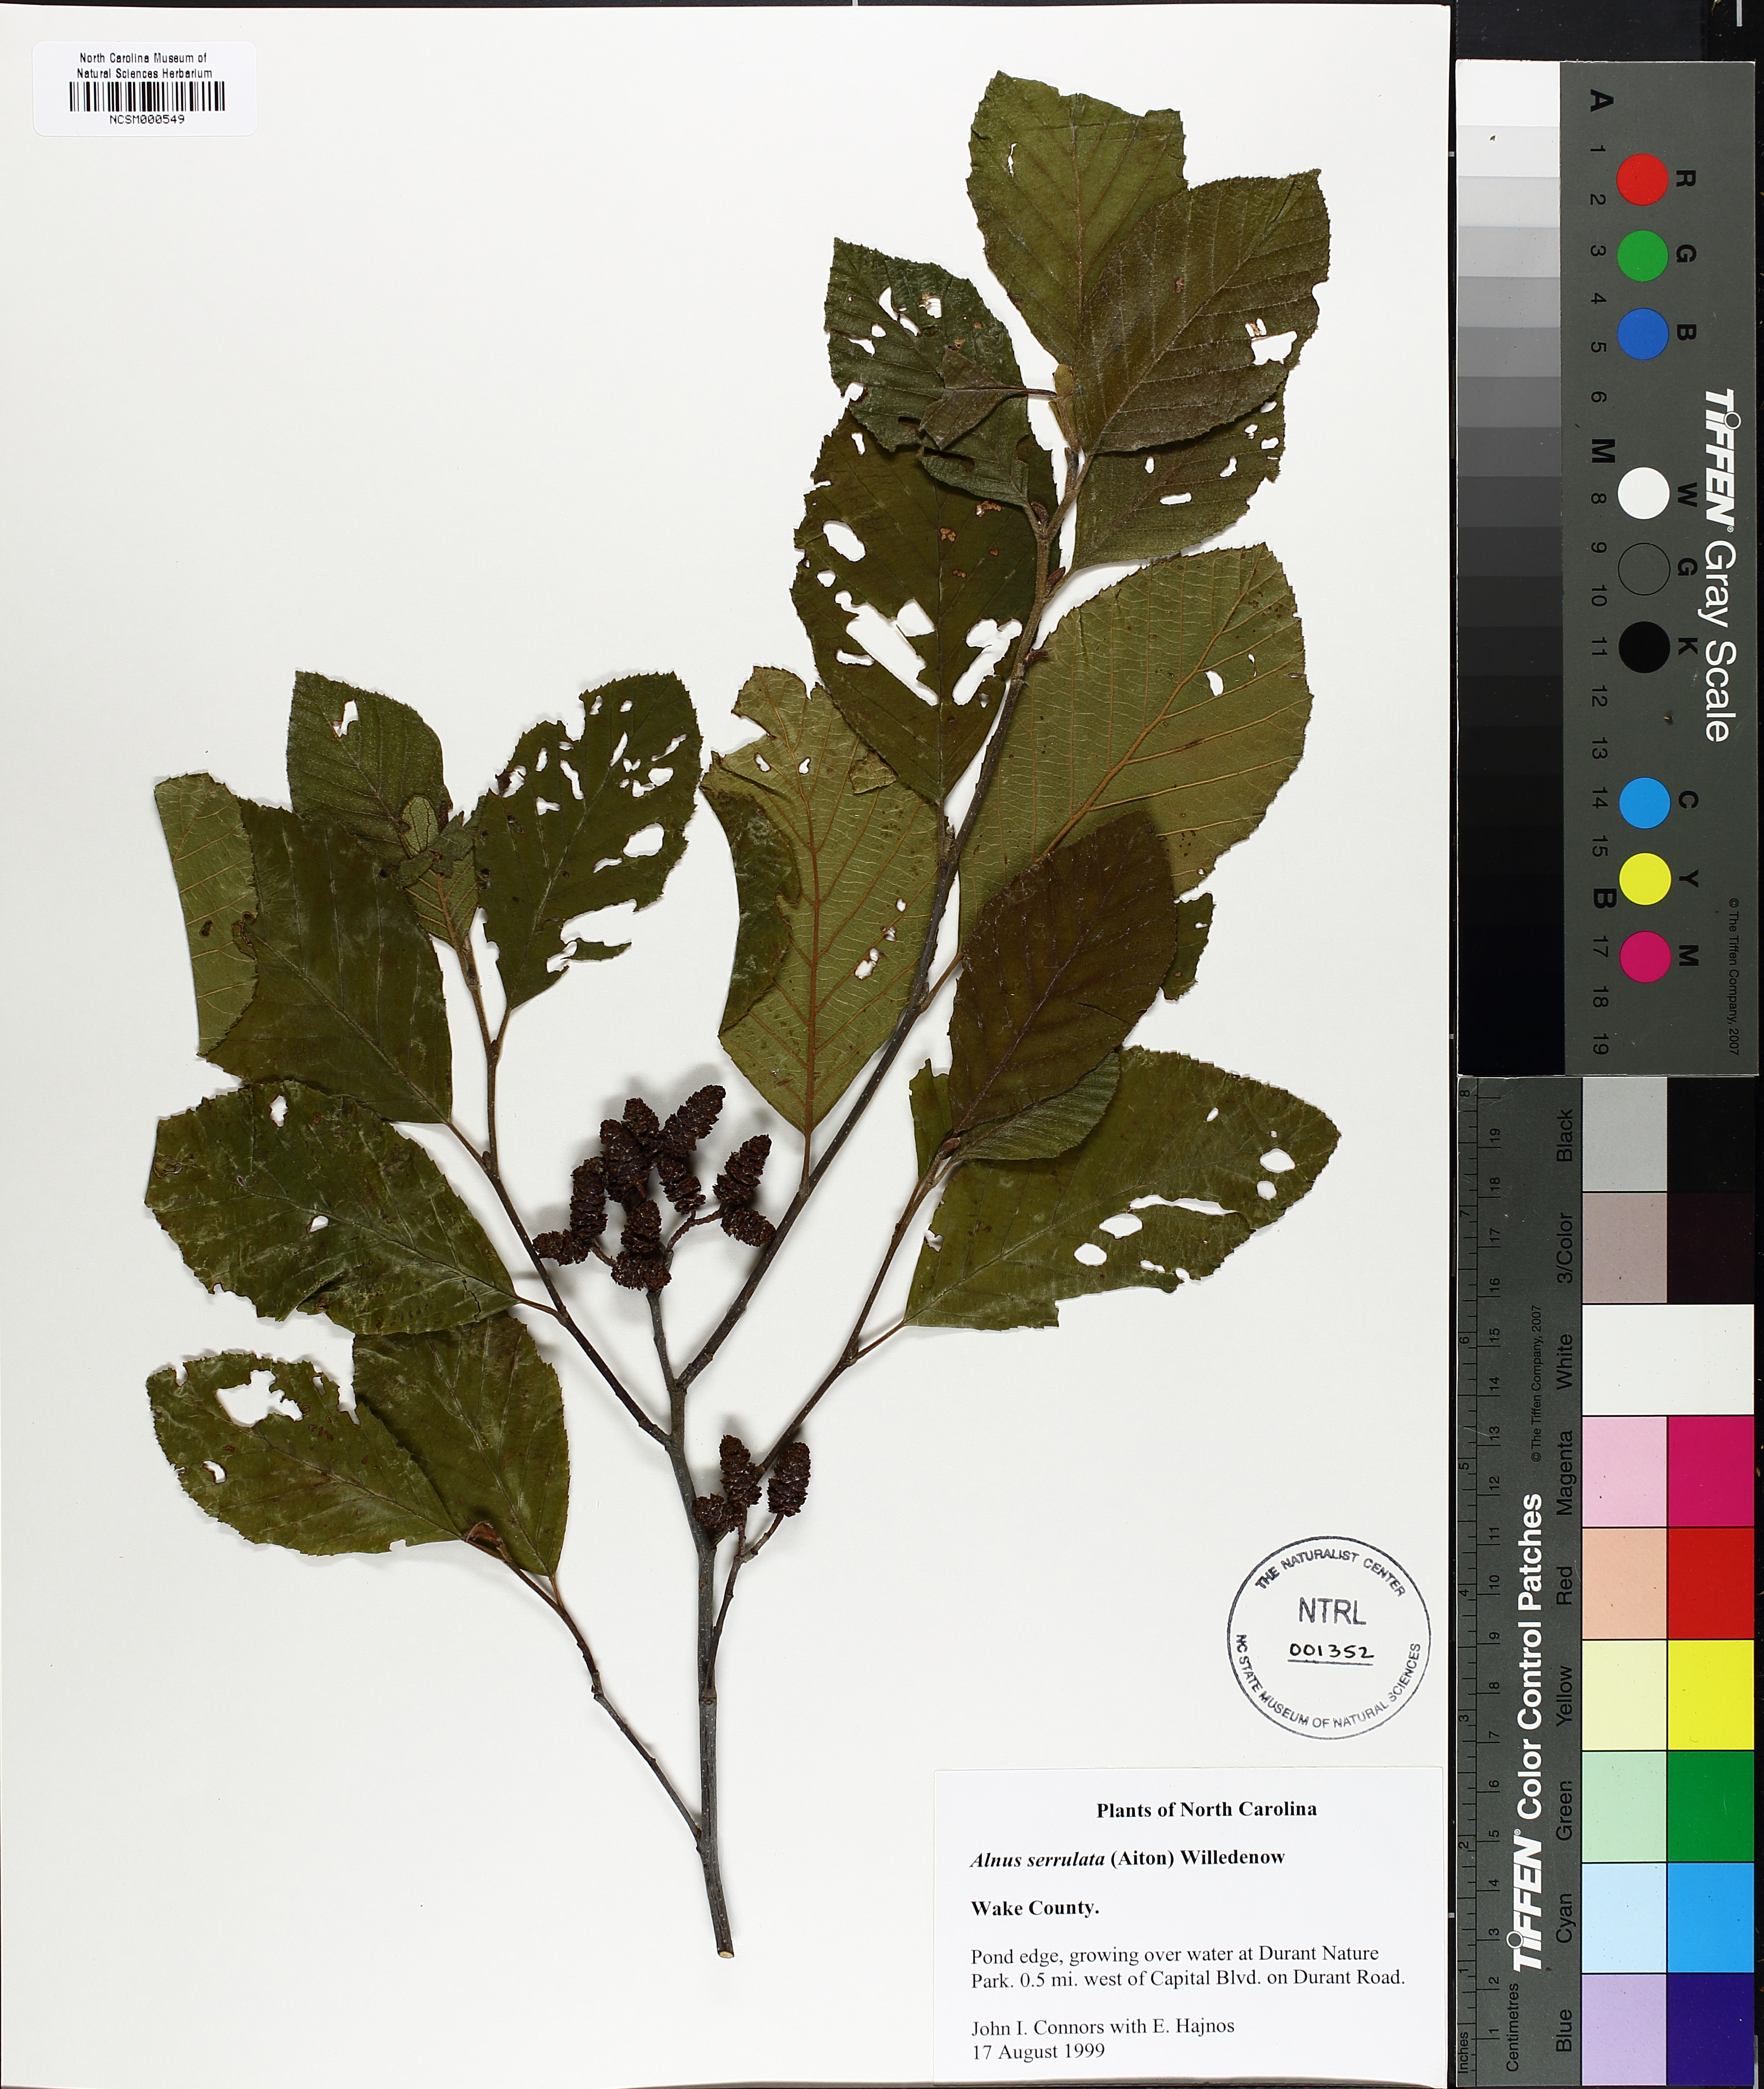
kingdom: Plantae
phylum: Tracheophyta
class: Magnoliopsida
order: Fagales
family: Betulaceae
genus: Alnus
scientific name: Alnus serrulata
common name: Hazel alder
